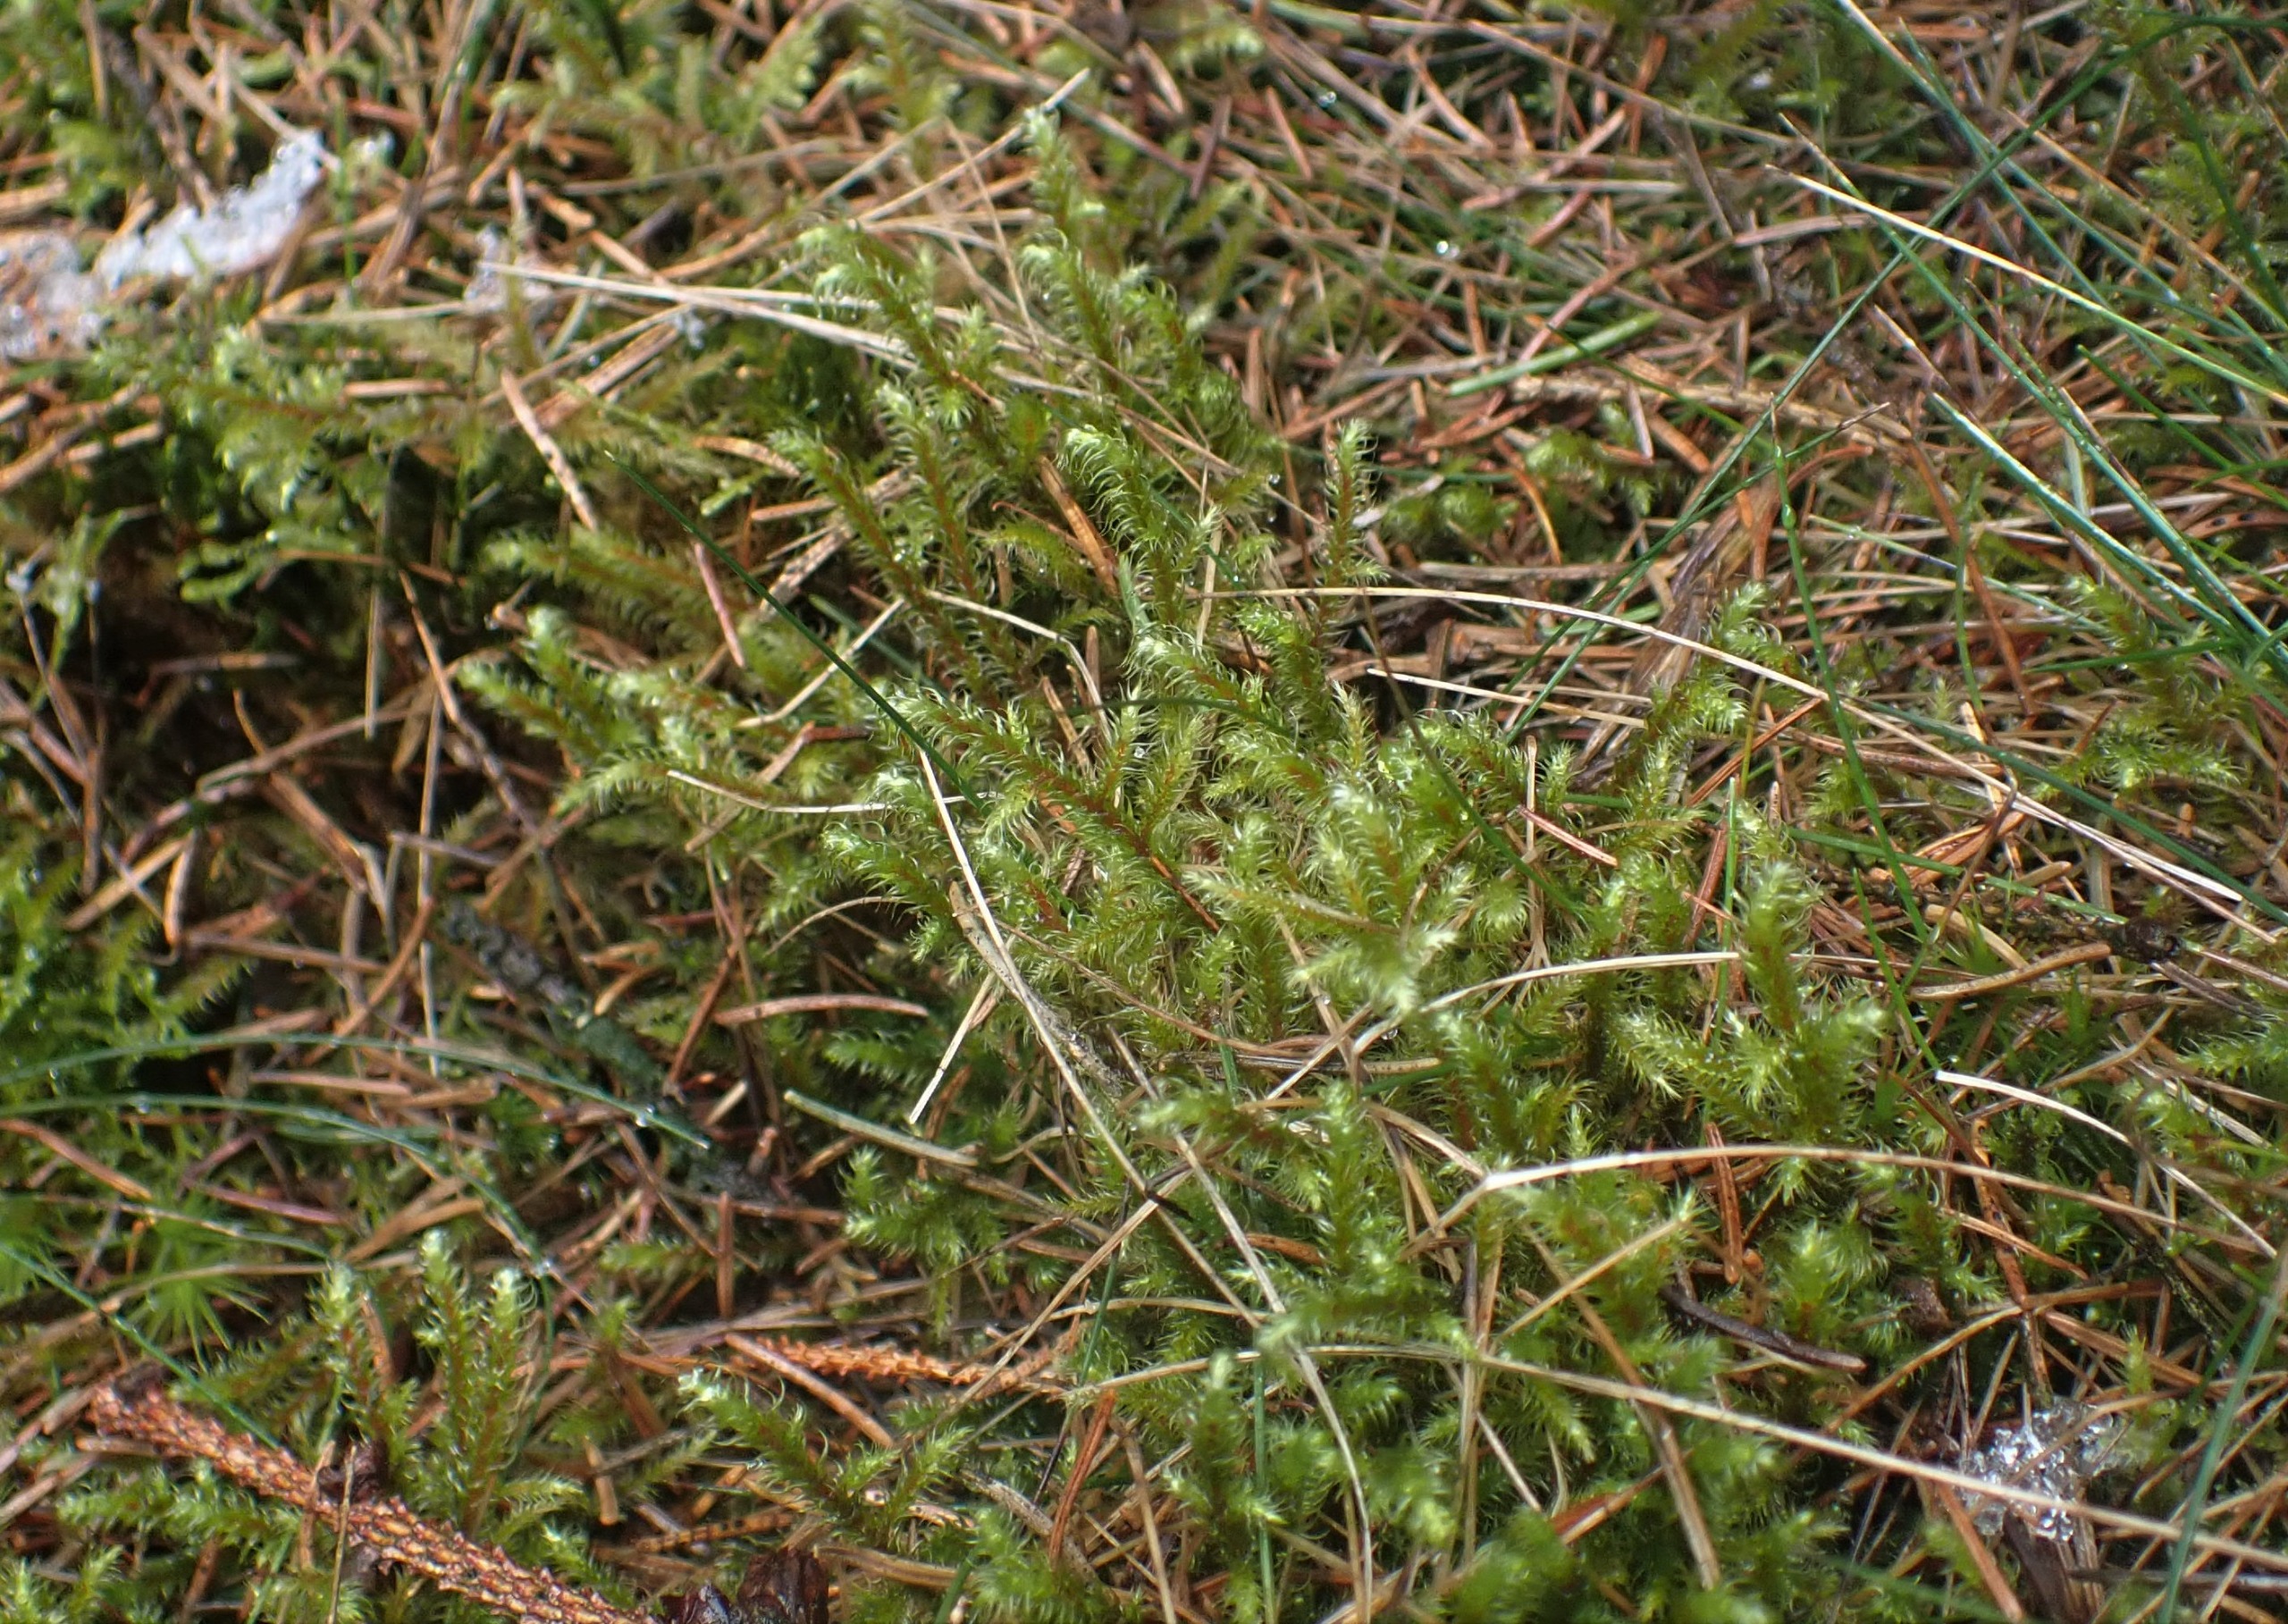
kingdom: Plantae
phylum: Bryophyta
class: Bryopsida
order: Hypnales
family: Hylocomiaceae
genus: Rhytidiadelphus
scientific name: Rhytidiadelphus loreus
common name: Ulvefod-kransemos
